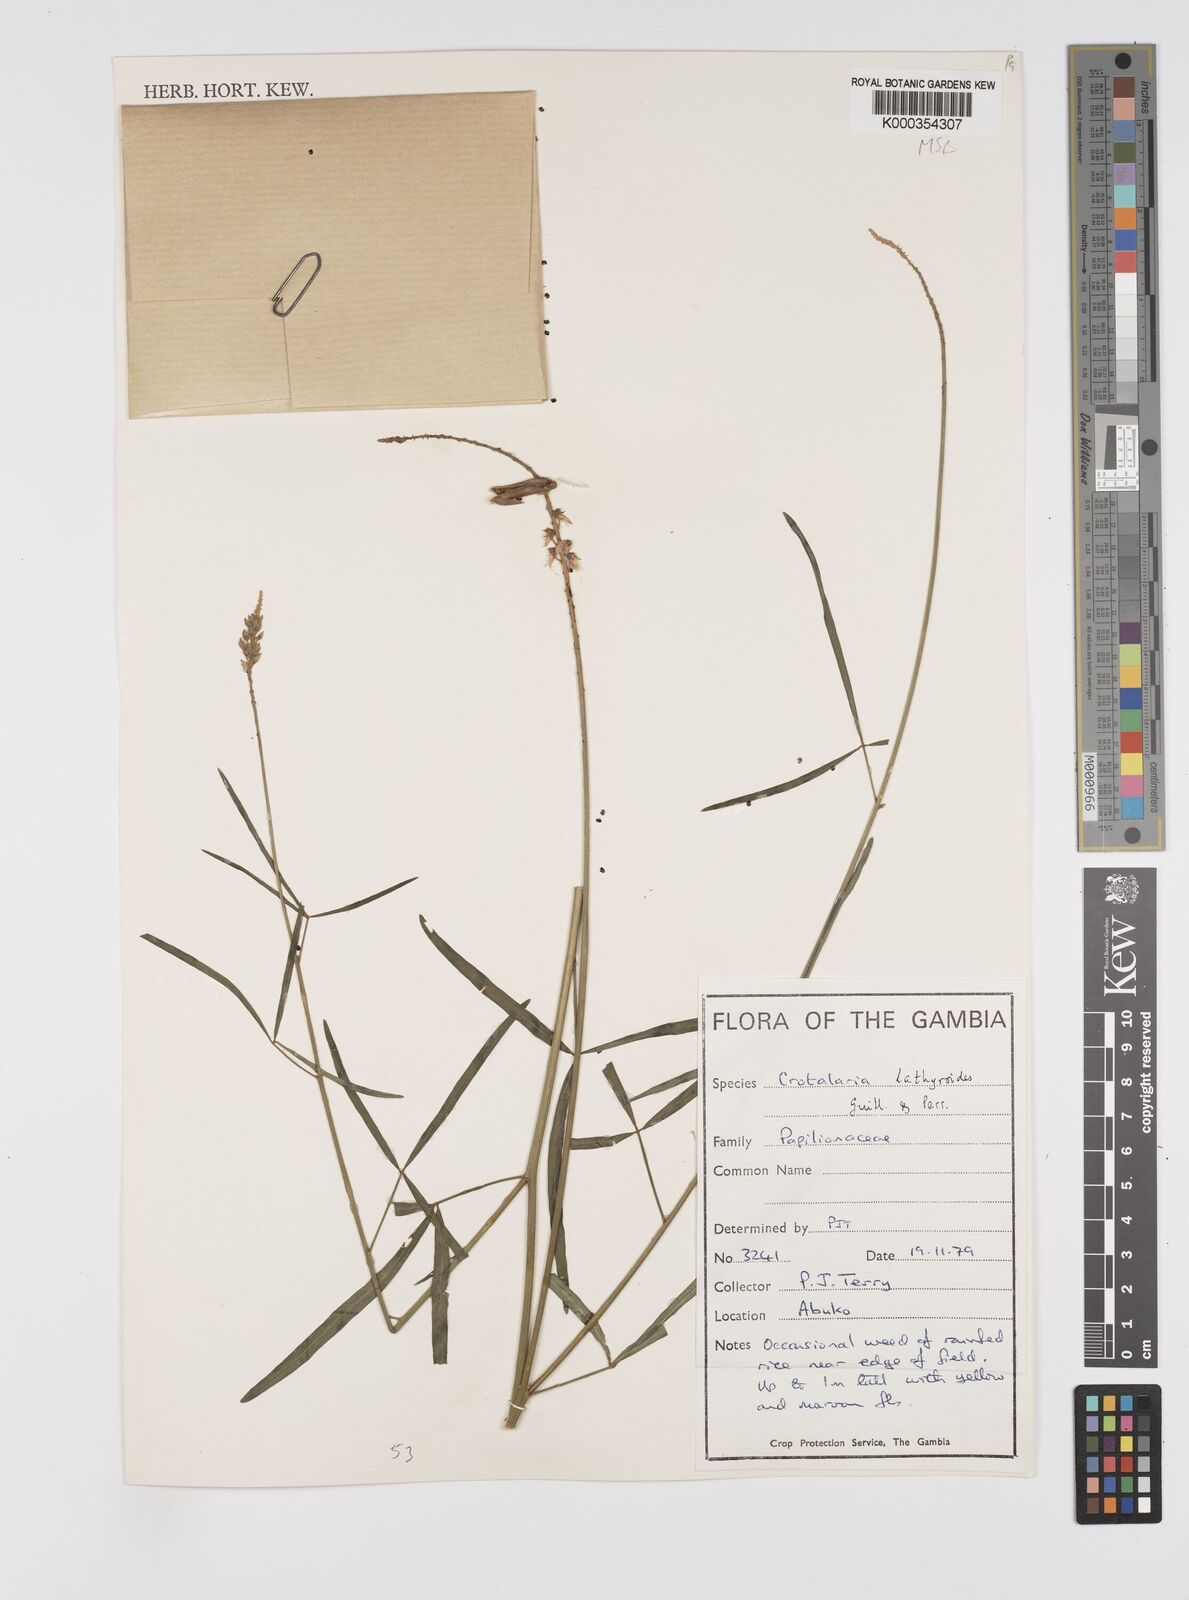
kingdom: Plantae
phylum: Tracheophyta
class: Magnoliopsida
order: Fabales
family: Fabaceae
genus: Crotalaria
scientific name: Crotalaria lathyroides
